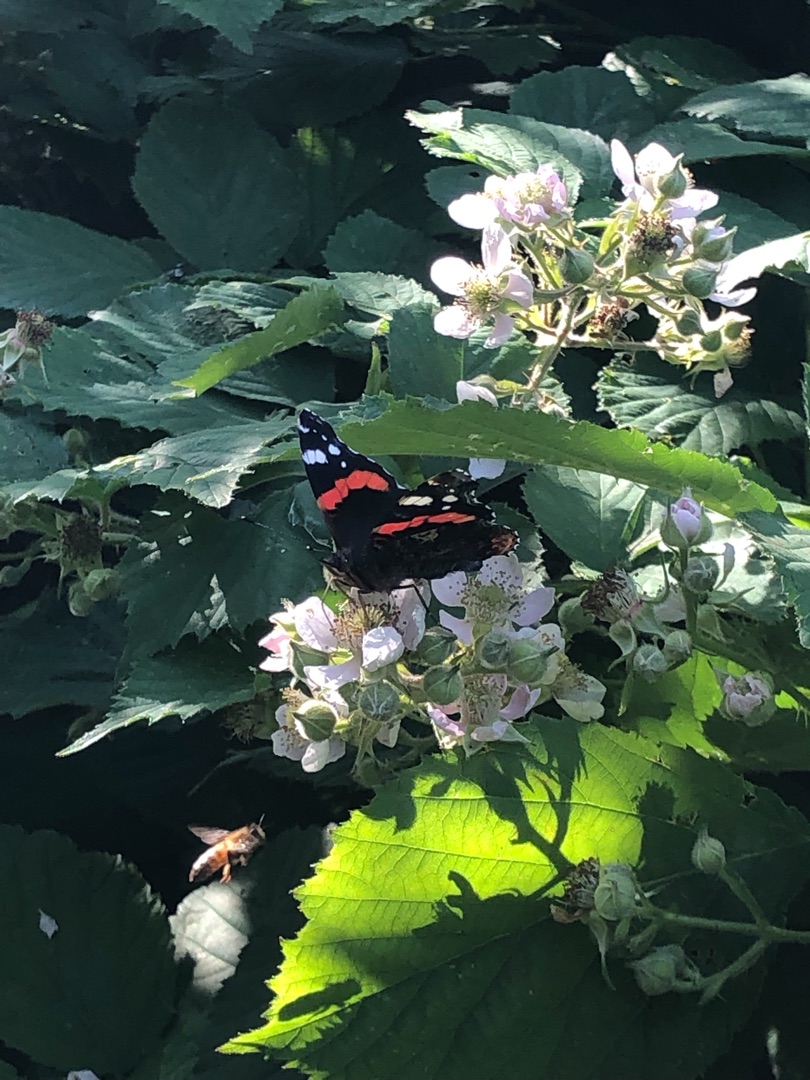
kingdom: Animalia
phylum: Arthropoda
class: Insecta
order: Lepidoptera
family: Nymphalidae
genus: Vanessa
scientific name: Vanessa atalanta
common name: Admiral
